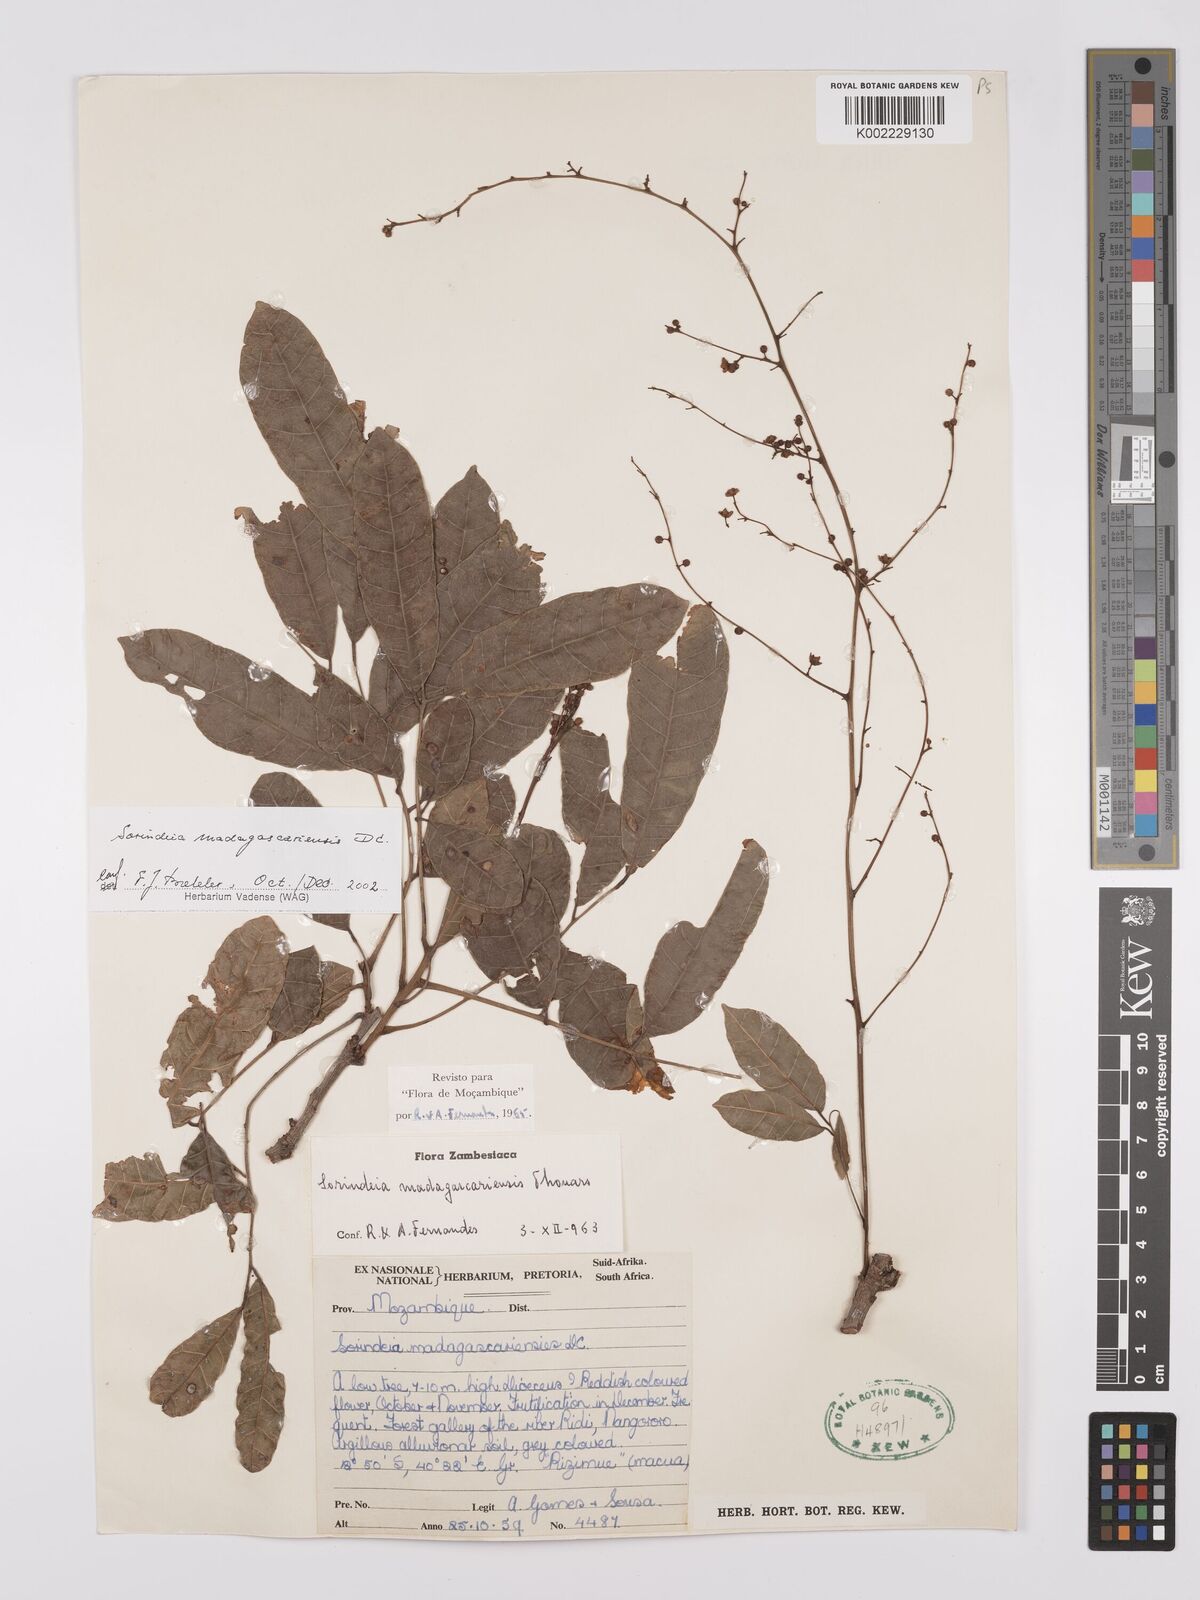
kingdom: Plantae
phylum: Tracheophyta
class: Magnoliopsida
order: Sapindales
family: Anacardiaceae
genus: Sorindeia
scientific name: Sorindeia madagascariensis
